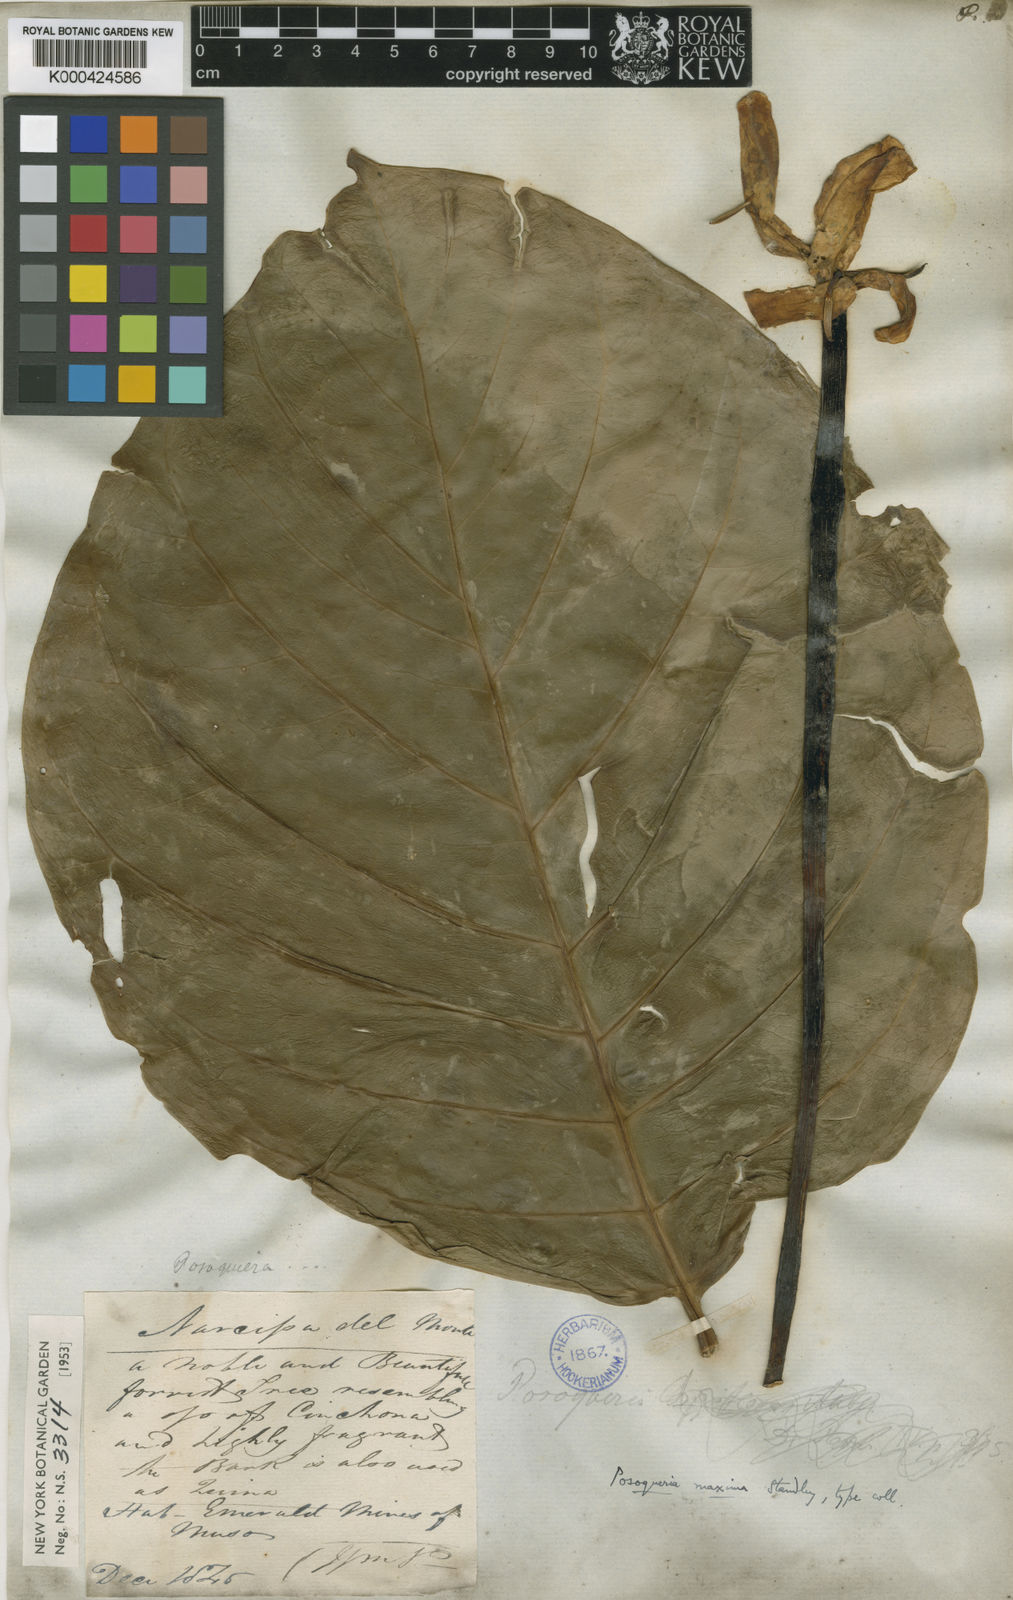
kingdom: Plantae
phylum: Tracheophyta
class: Magnoliopsida
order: Gentianales
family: Rubiaceae
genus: Posoqueria
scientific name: Posoqueria coriacea
